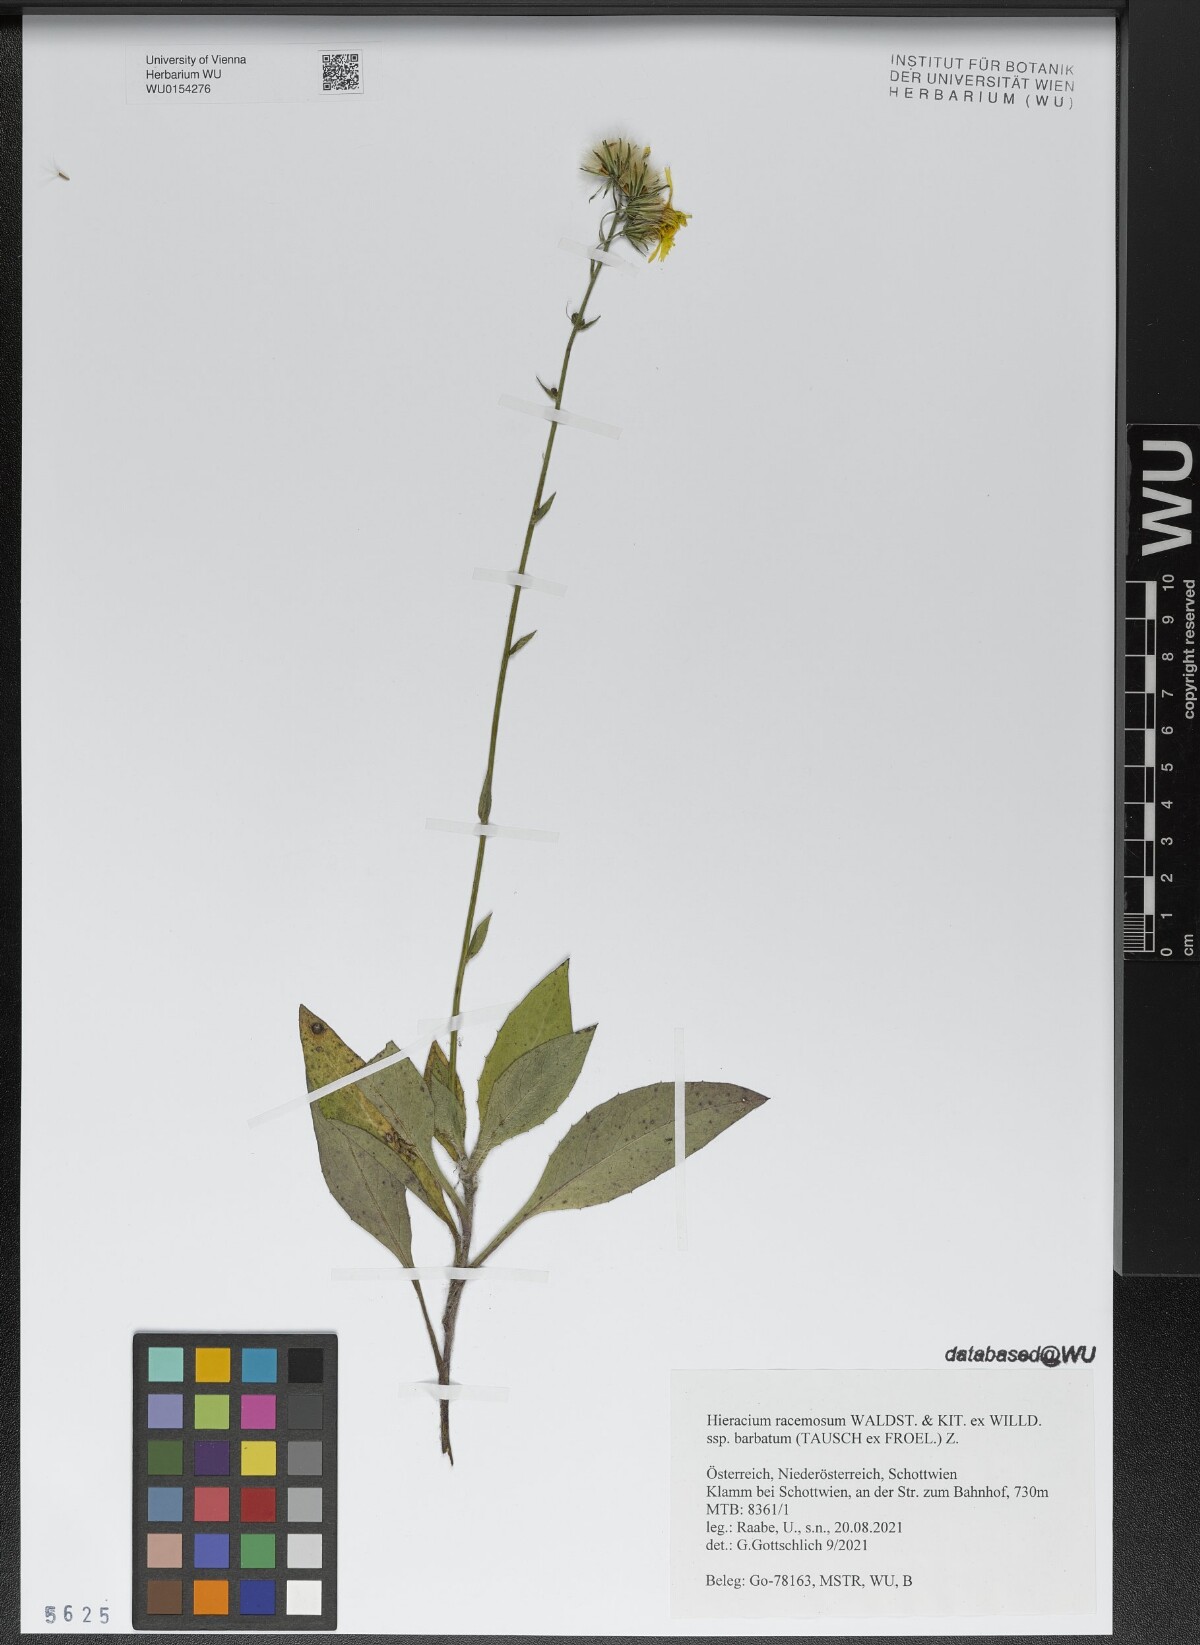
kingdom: Plantae
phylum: Tracheophyta
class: Magnoliopsida
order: Asterales
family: Asteraceae
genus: Hieracium
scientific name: Hieracium racemosum
